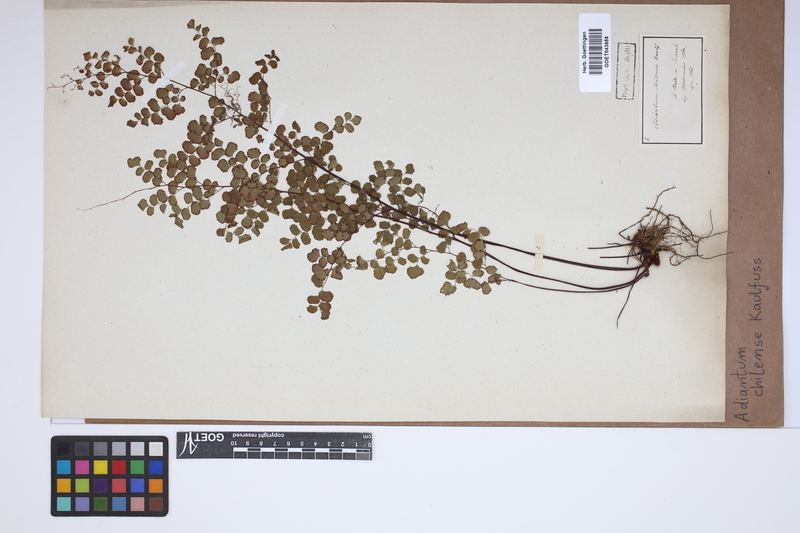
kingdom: Plantae
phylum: Tracheophyta
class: Polypodiopsida
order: Polypodiales
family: Pteridaceae
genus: Adiantum
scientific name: Adiantum chilense
